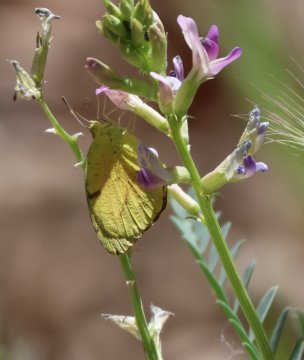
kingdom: Animalia
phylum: Arthropoda
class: Insecta
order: Lepidoptera
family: Pieridae
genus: Abaeis
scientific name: Abaeis nicippe
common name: Sleepy Orange
